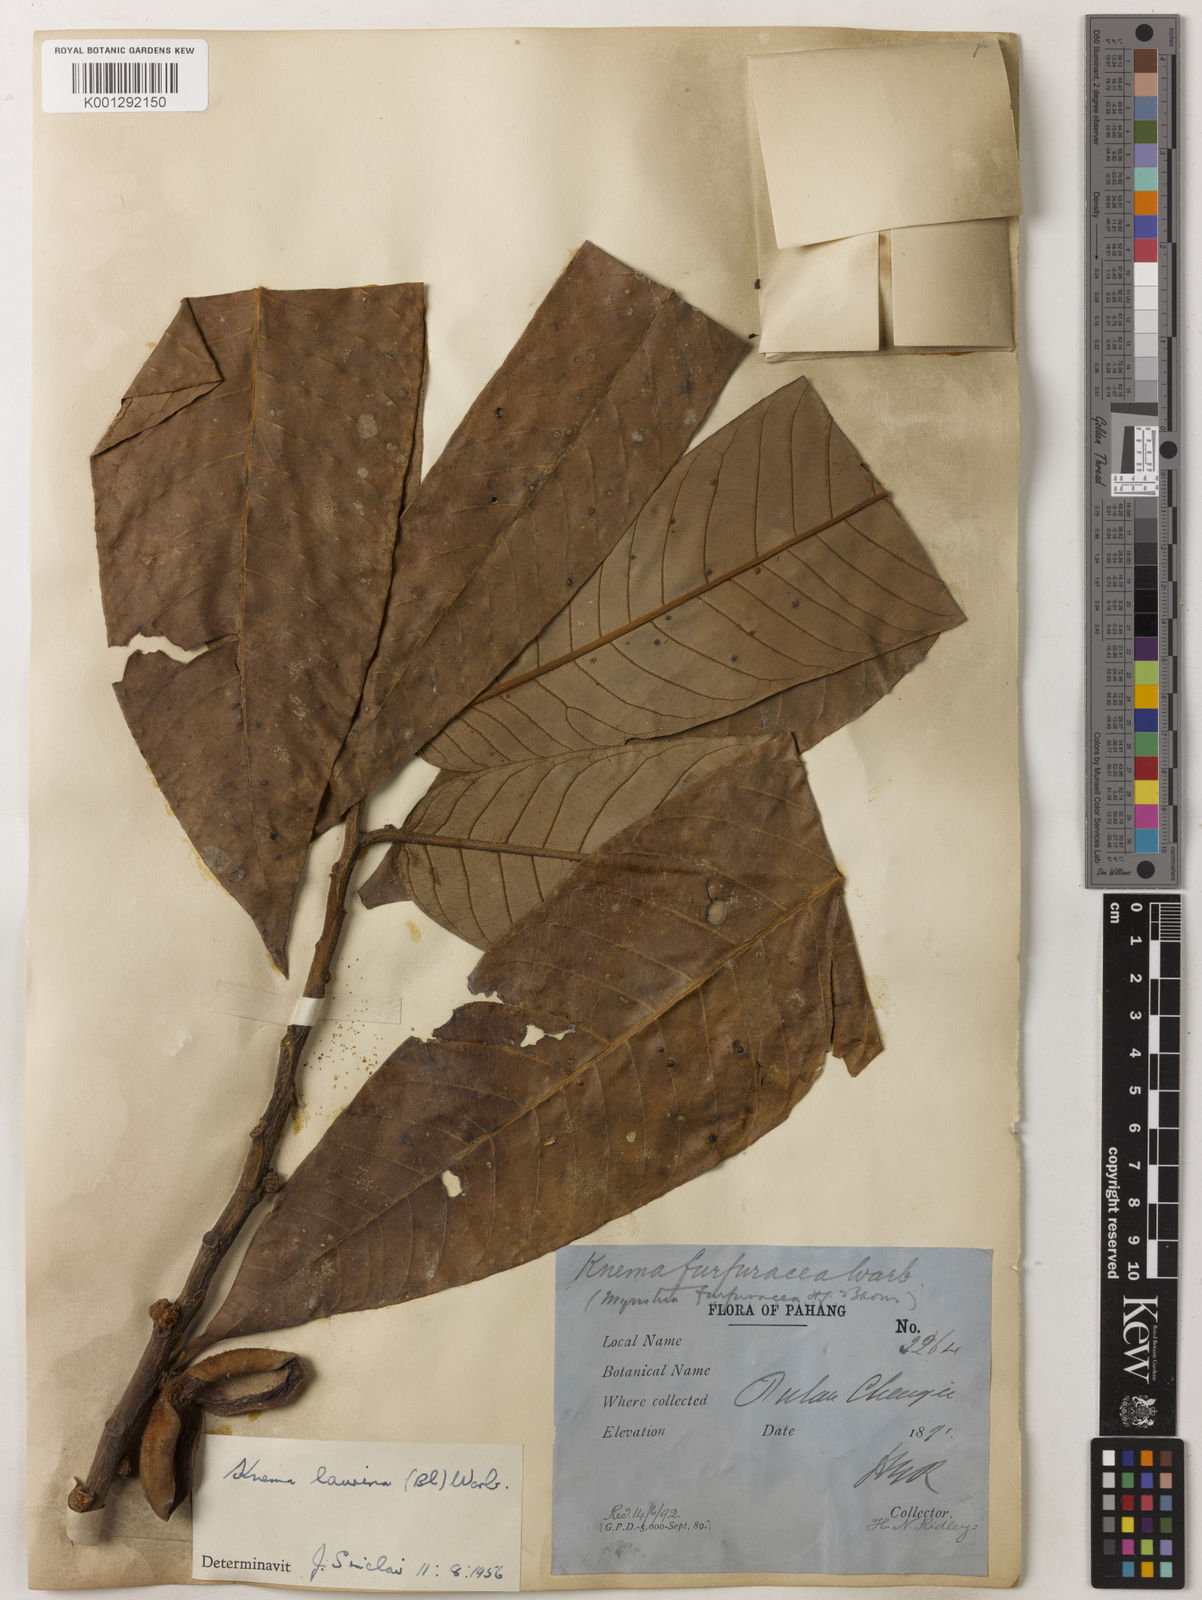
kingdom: Plantae
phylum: Tracheophyta
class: Magnoliopsida
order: Magnoliales
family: Myristicaceae
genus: Knema
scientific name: Knema laurina
